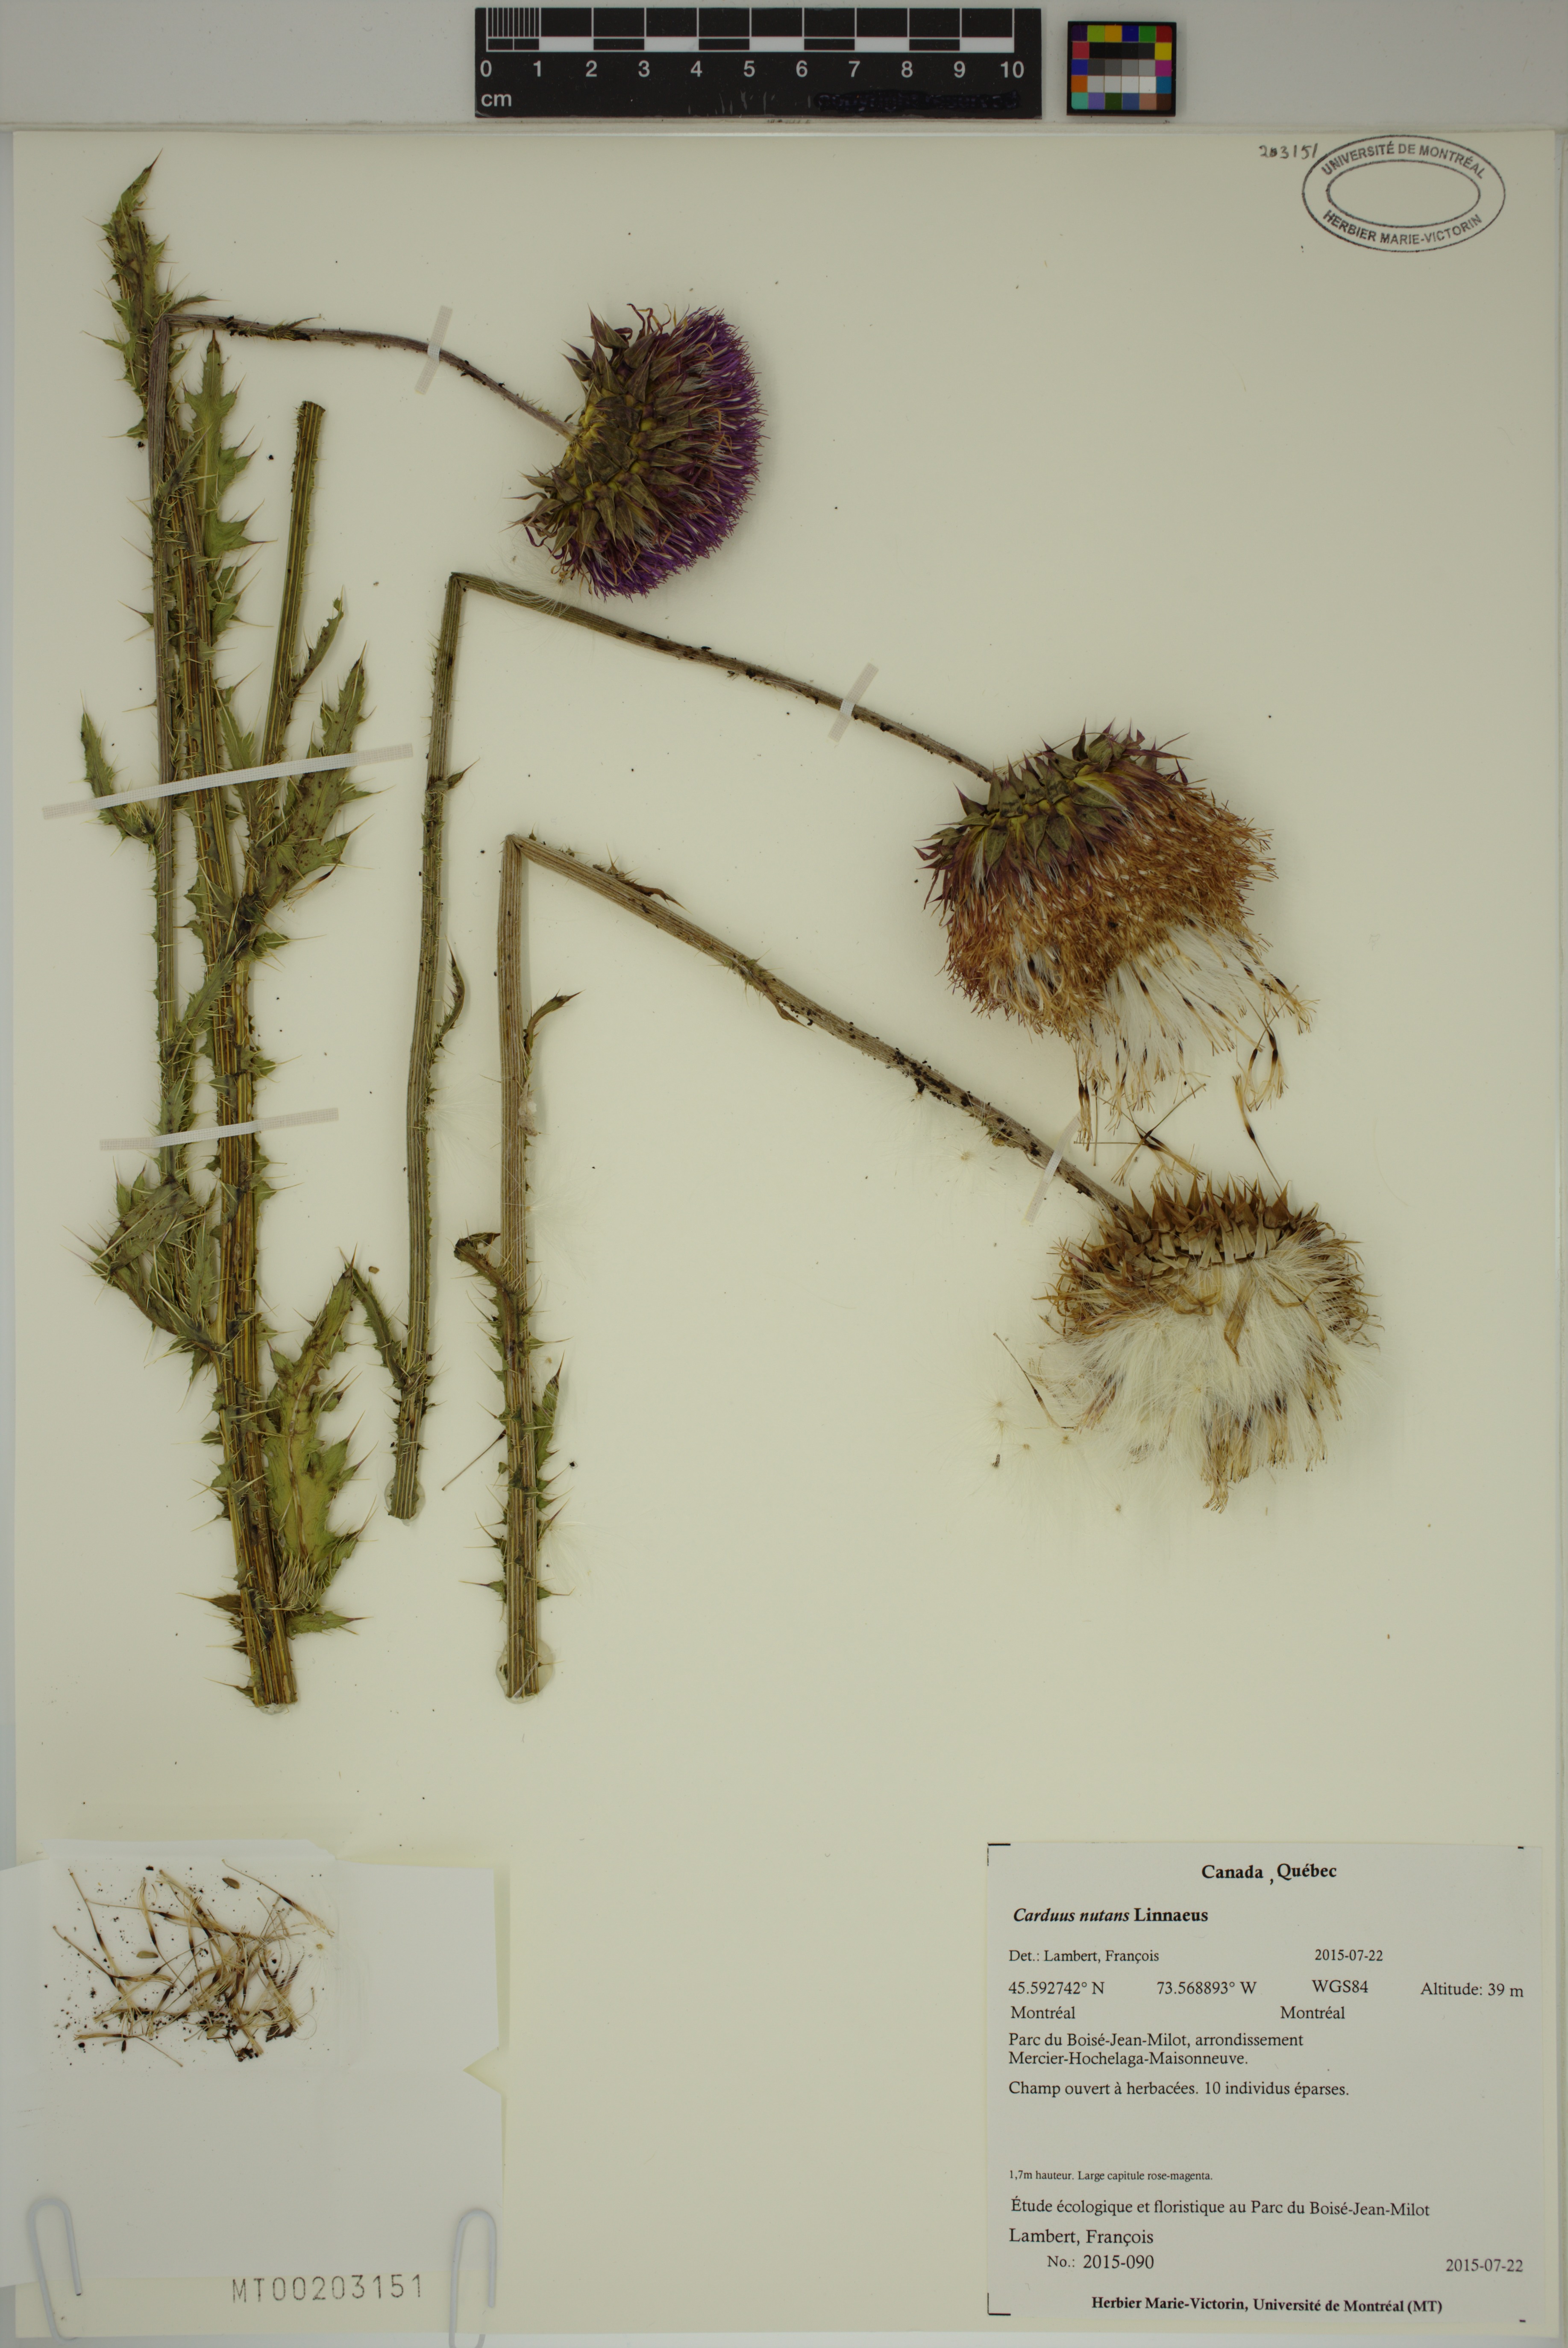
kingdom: Plantae
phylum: Tracheophyta
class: Magnoliopsida
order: Asterales
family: Asteraceae
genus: Carduus
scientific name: Carduus nutans
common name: Musk thistle
